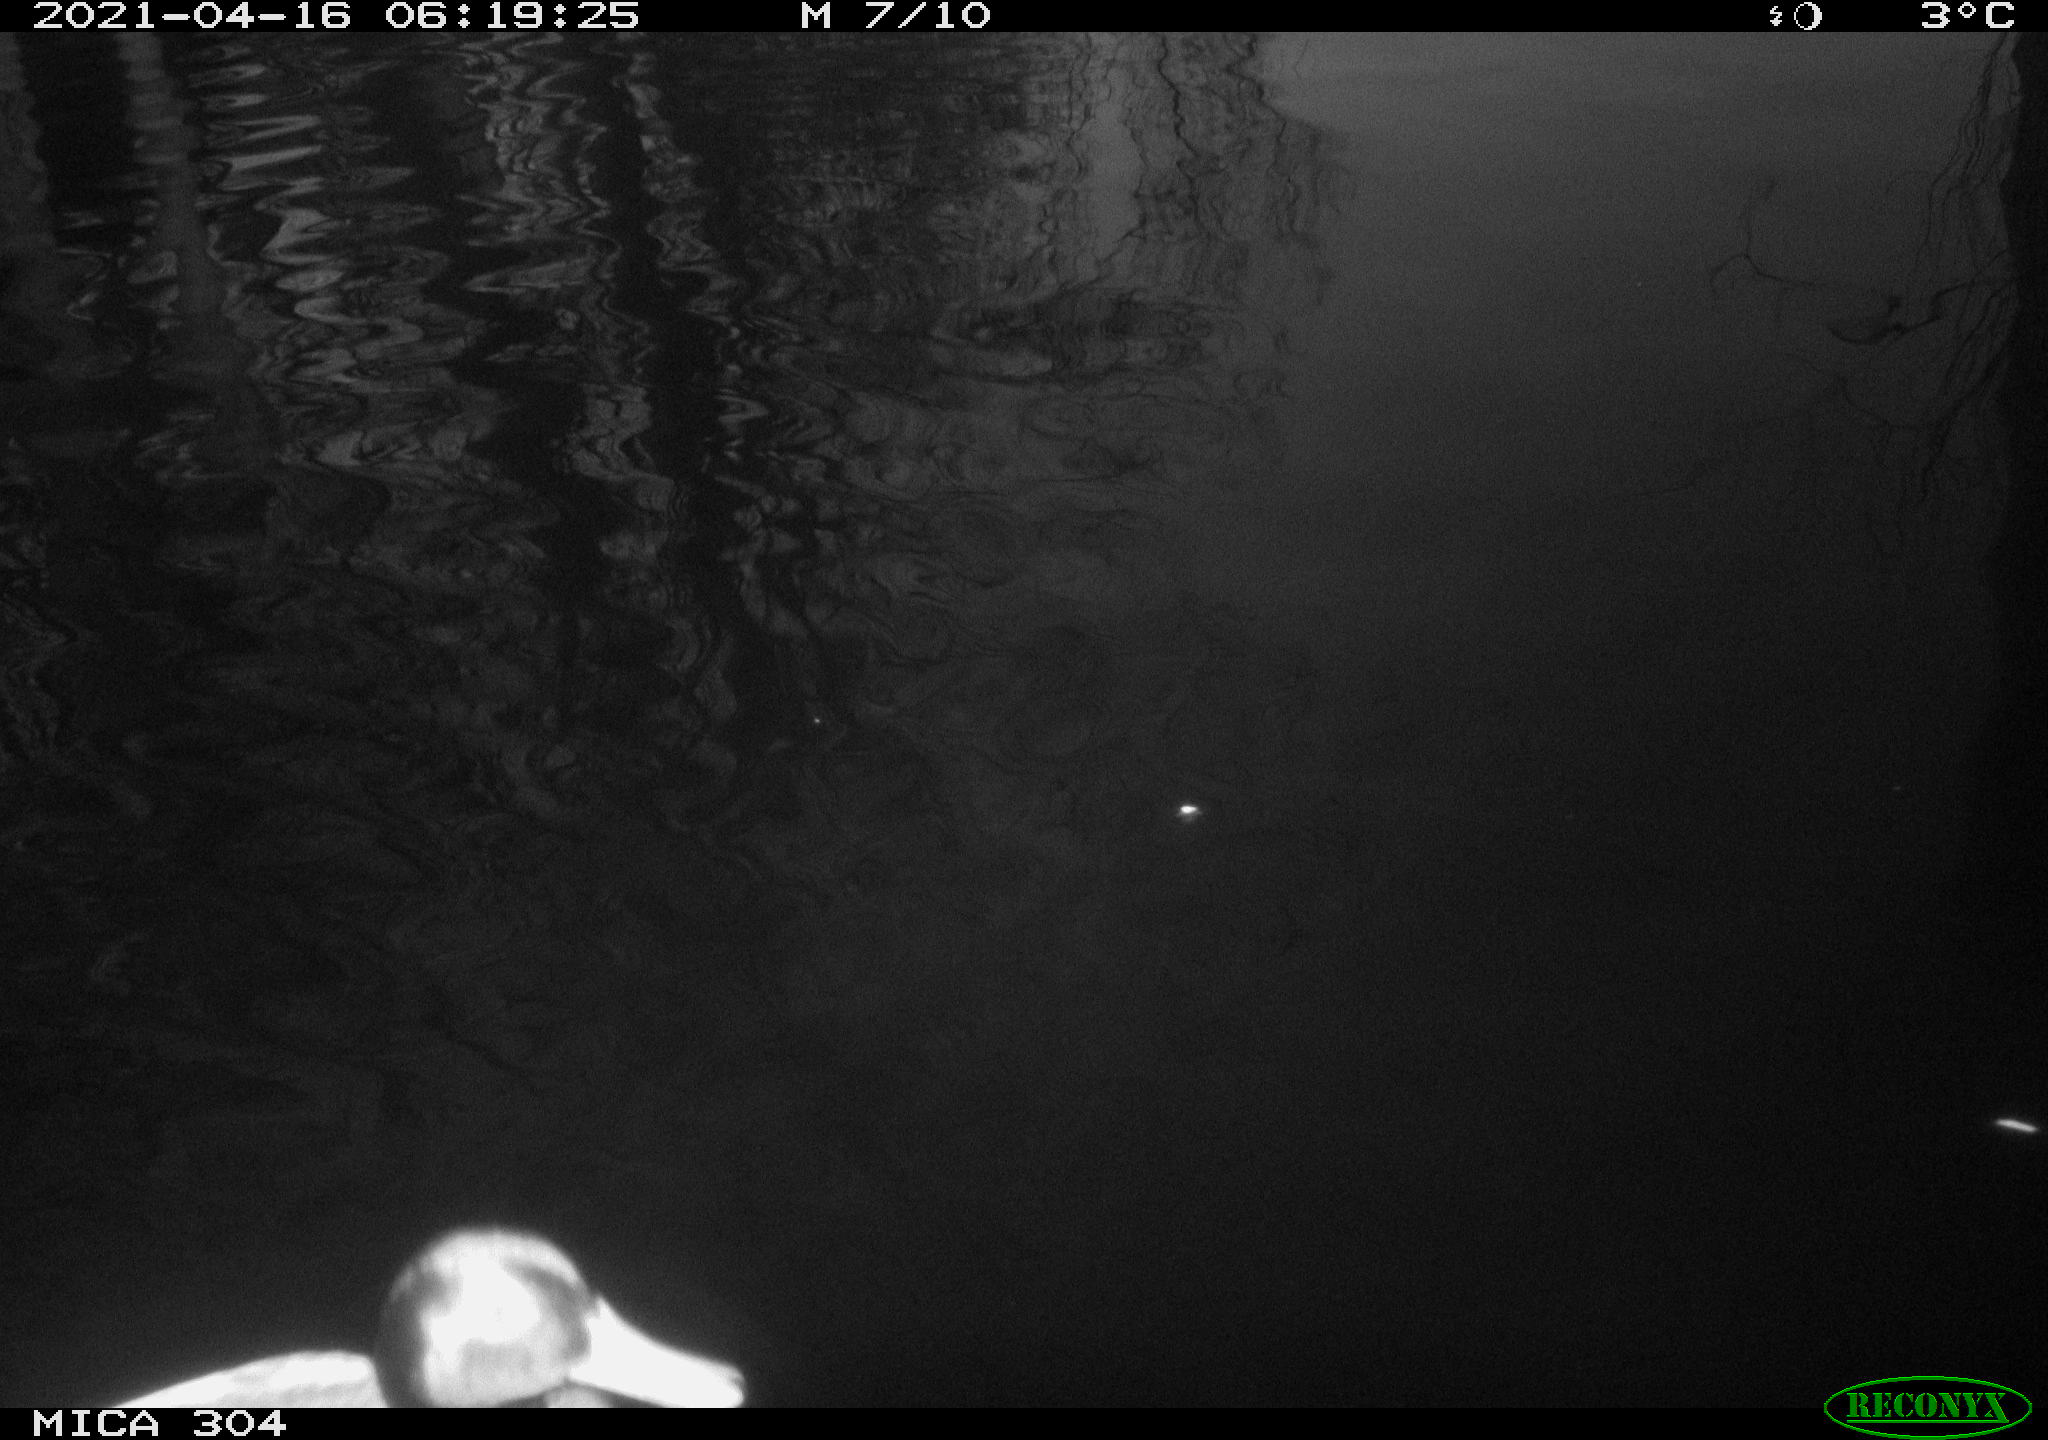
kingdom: Animalia
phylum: Chordata
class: Aves
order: Anseriformes
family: Anatidae
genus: Anas
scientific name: Anas
